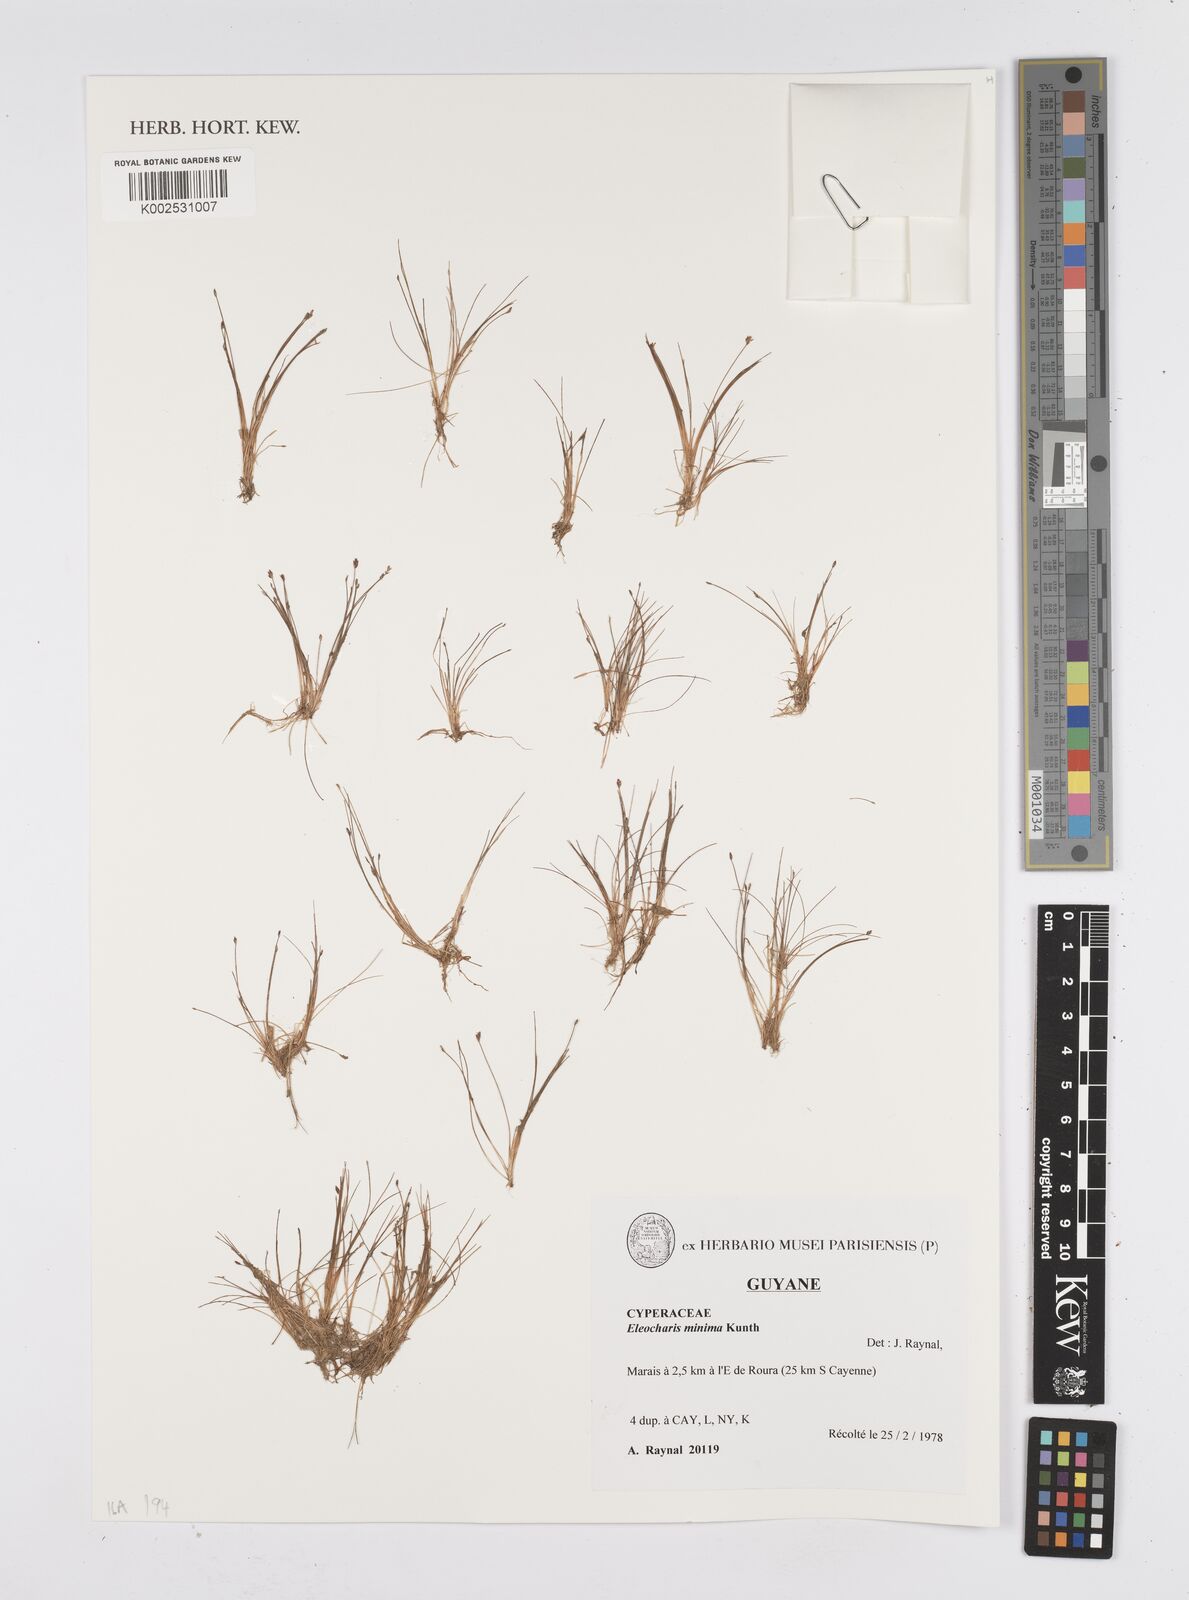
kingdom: Plantae
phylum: Tracheophyta
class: Liliopsida
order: Poales
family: Cyperaceae
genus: Eleocharis
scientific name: Eleocharis minima
